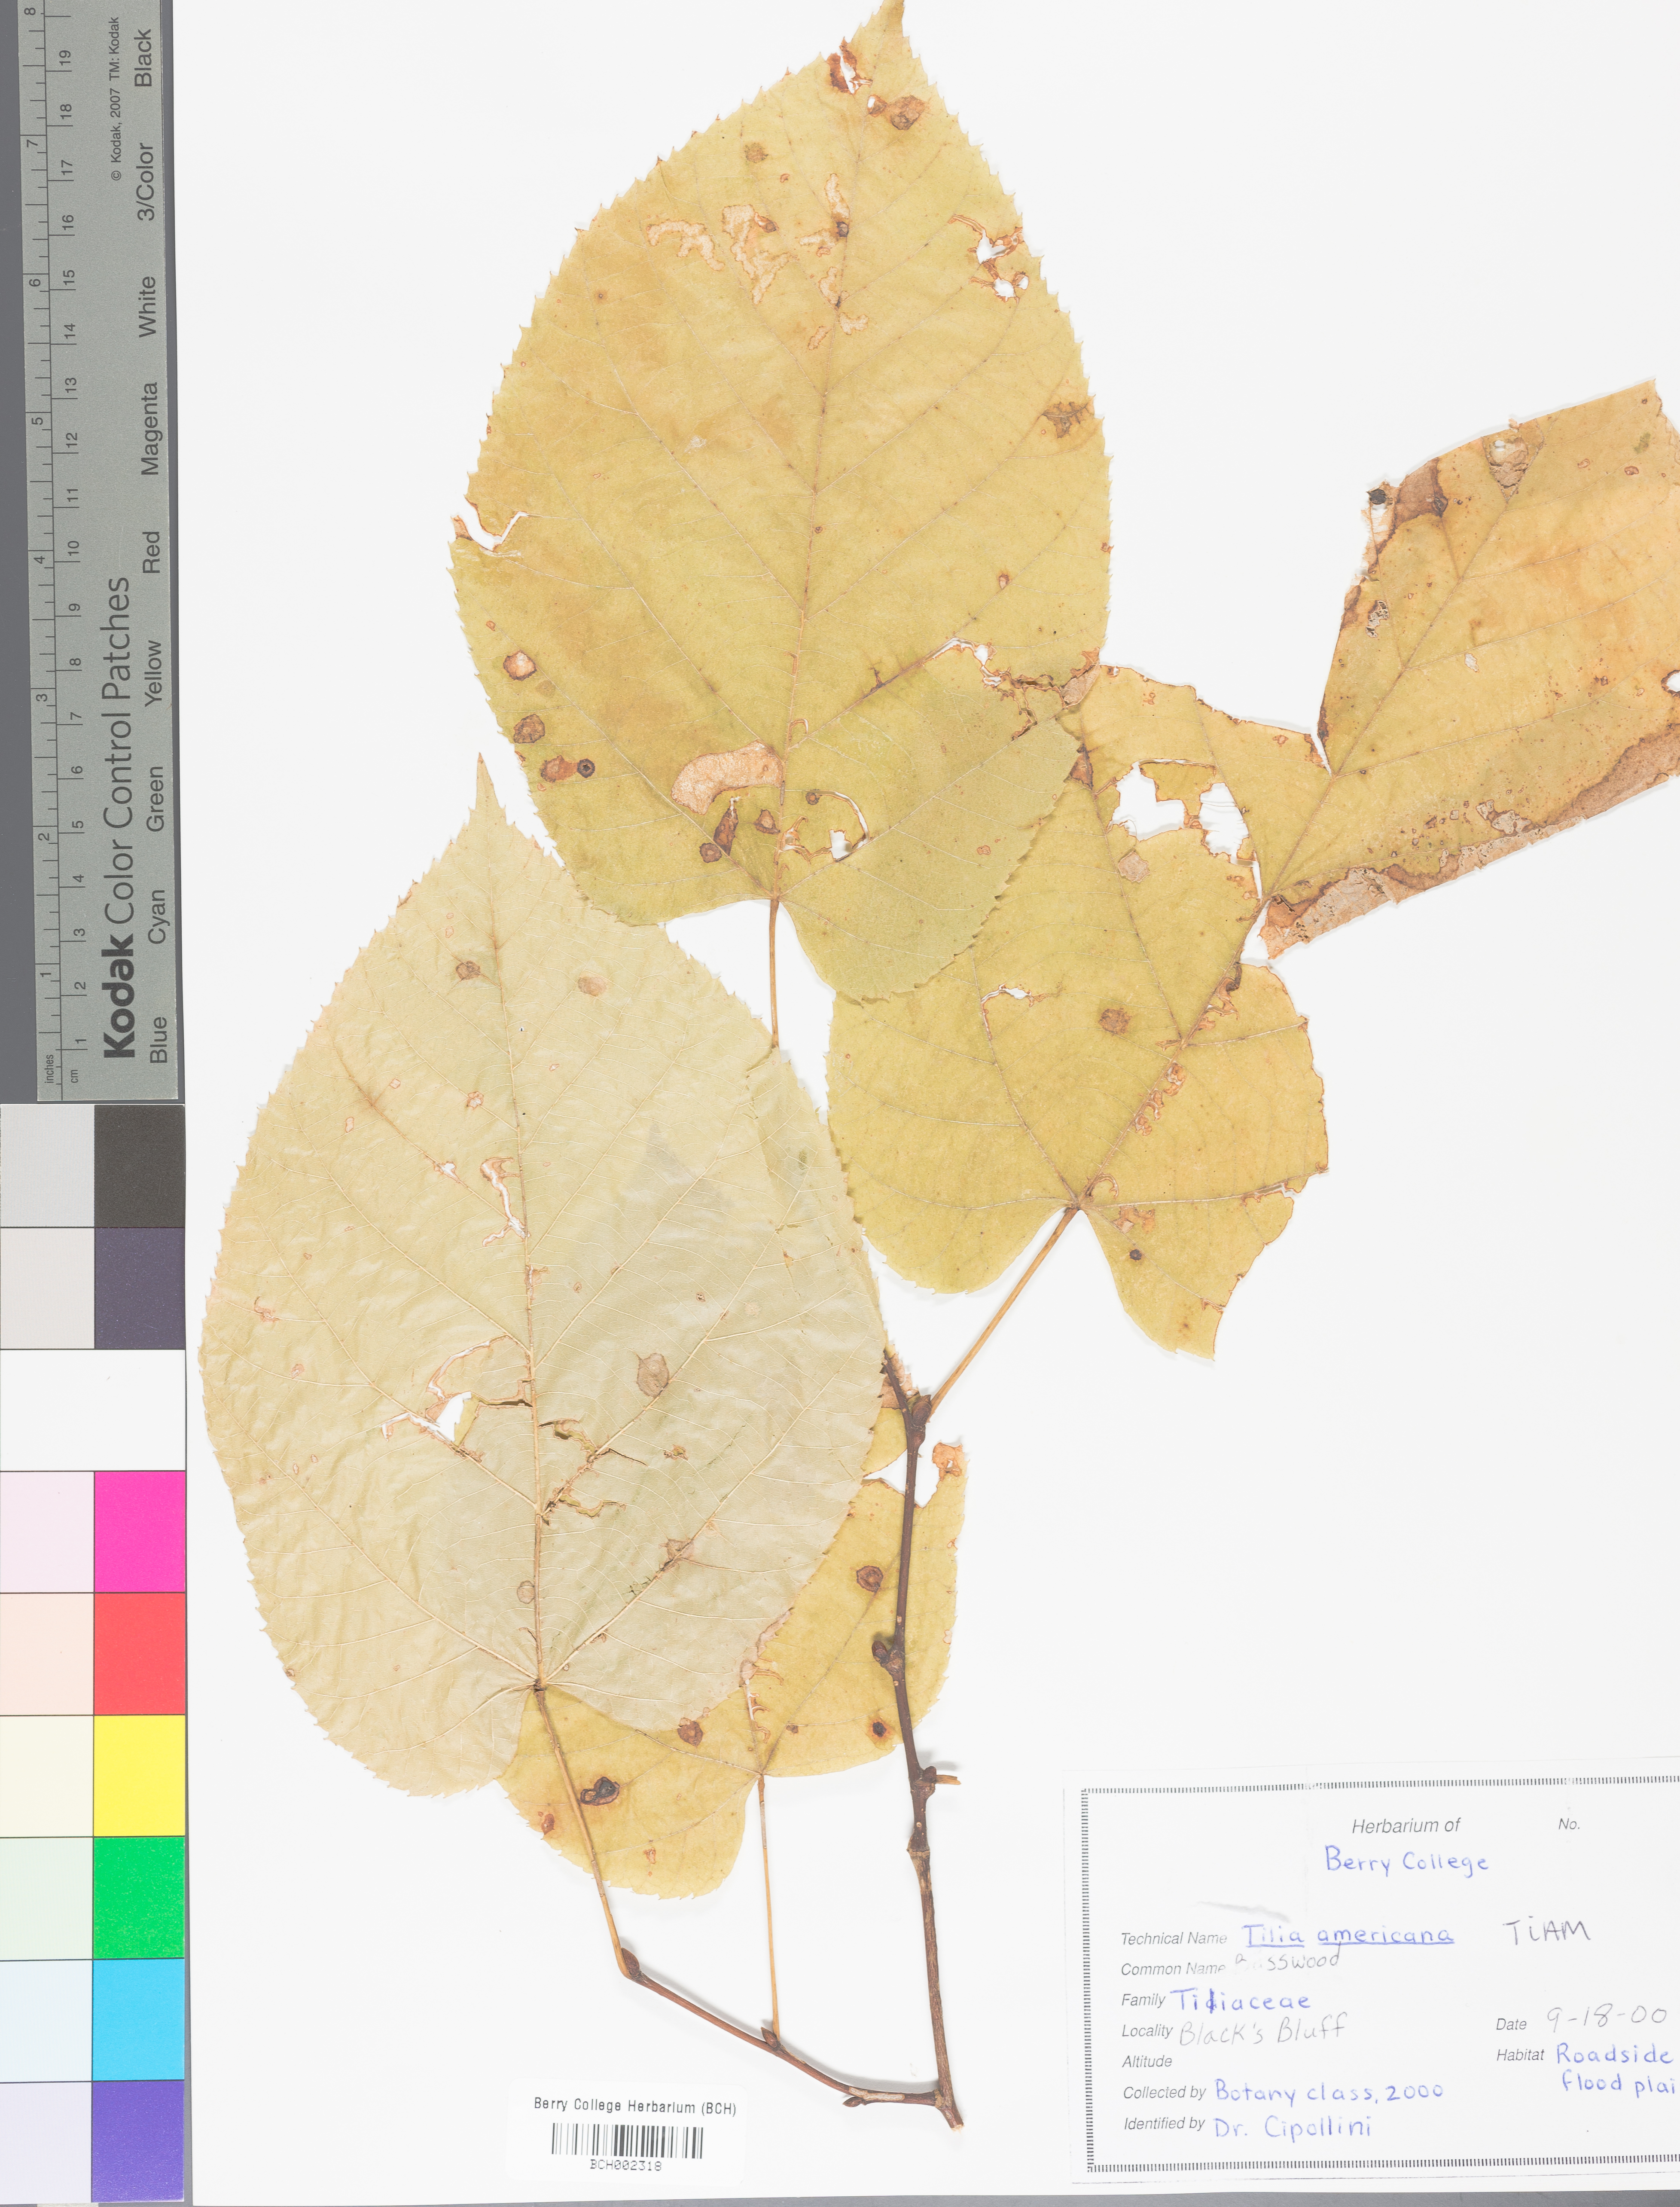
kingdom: Plantae
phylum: Tracheophyta
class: Magnoliopsida
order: Malvales
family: Malvaceae
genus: Tilia
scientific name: Tilia americana
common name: Basswood
